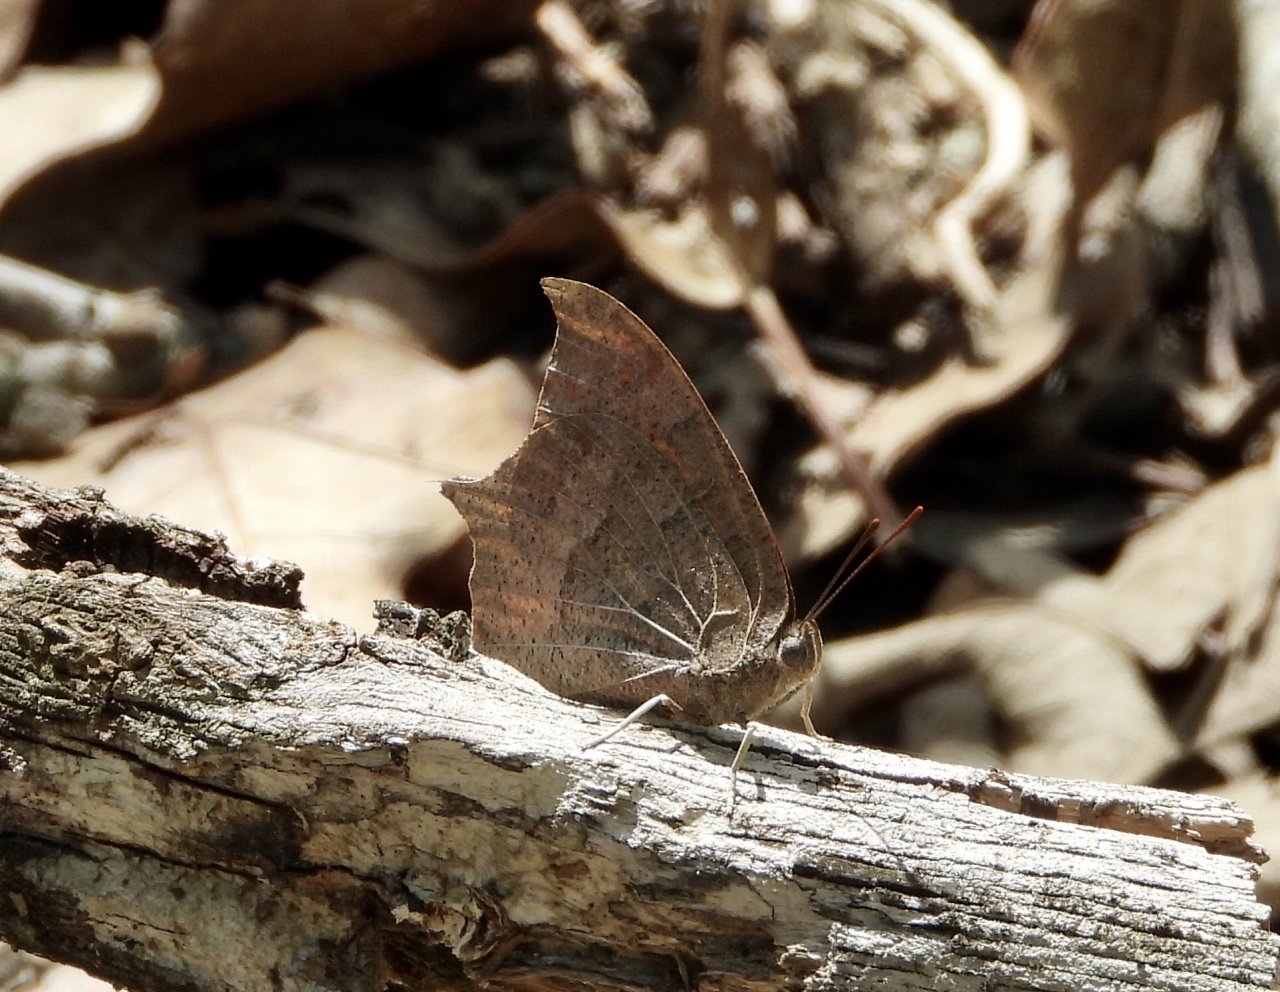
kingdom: Animalia
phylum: Arthropoda
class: Insecta
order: Lepidoptera
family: Nymphalidae
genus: Anaea
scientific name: Anaea andria
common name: Goatweed Leafwing
